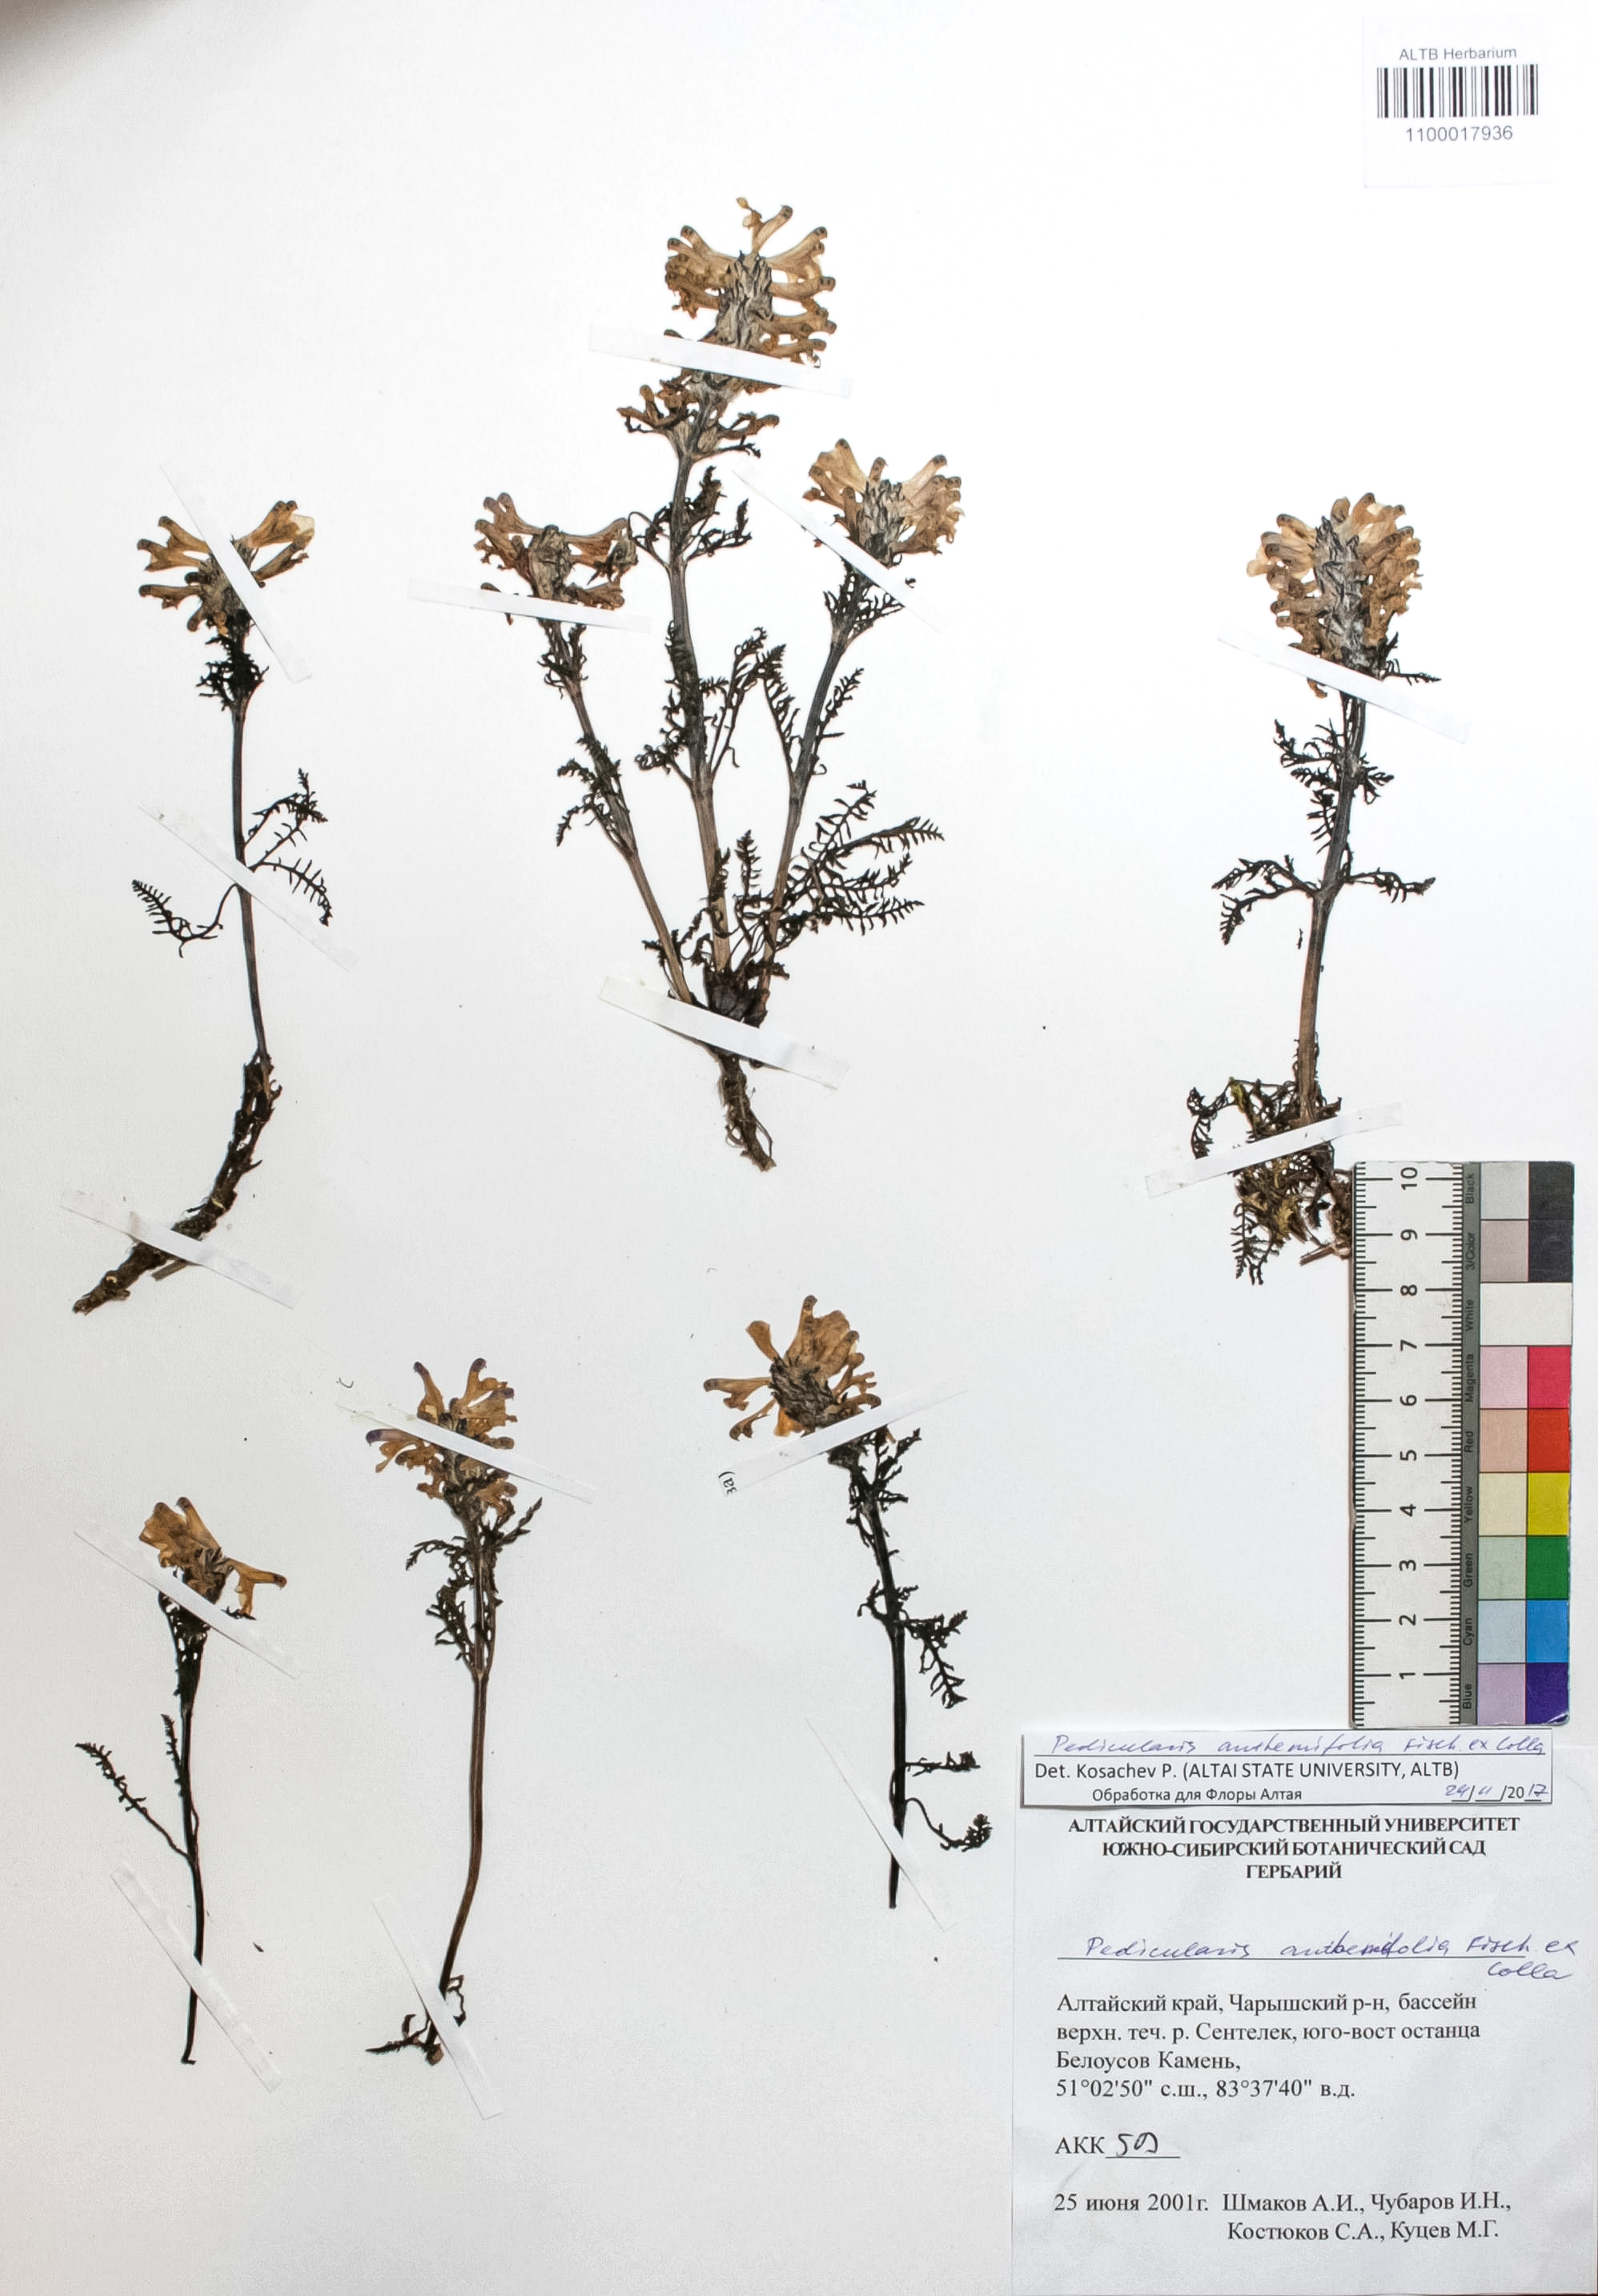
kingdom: Plantae
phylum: Tracheophyta
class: Magnoliopsida
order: Lamiales
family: Orobanchaceae
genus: Pedicularis
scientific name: Pedicularis anthemifolia
